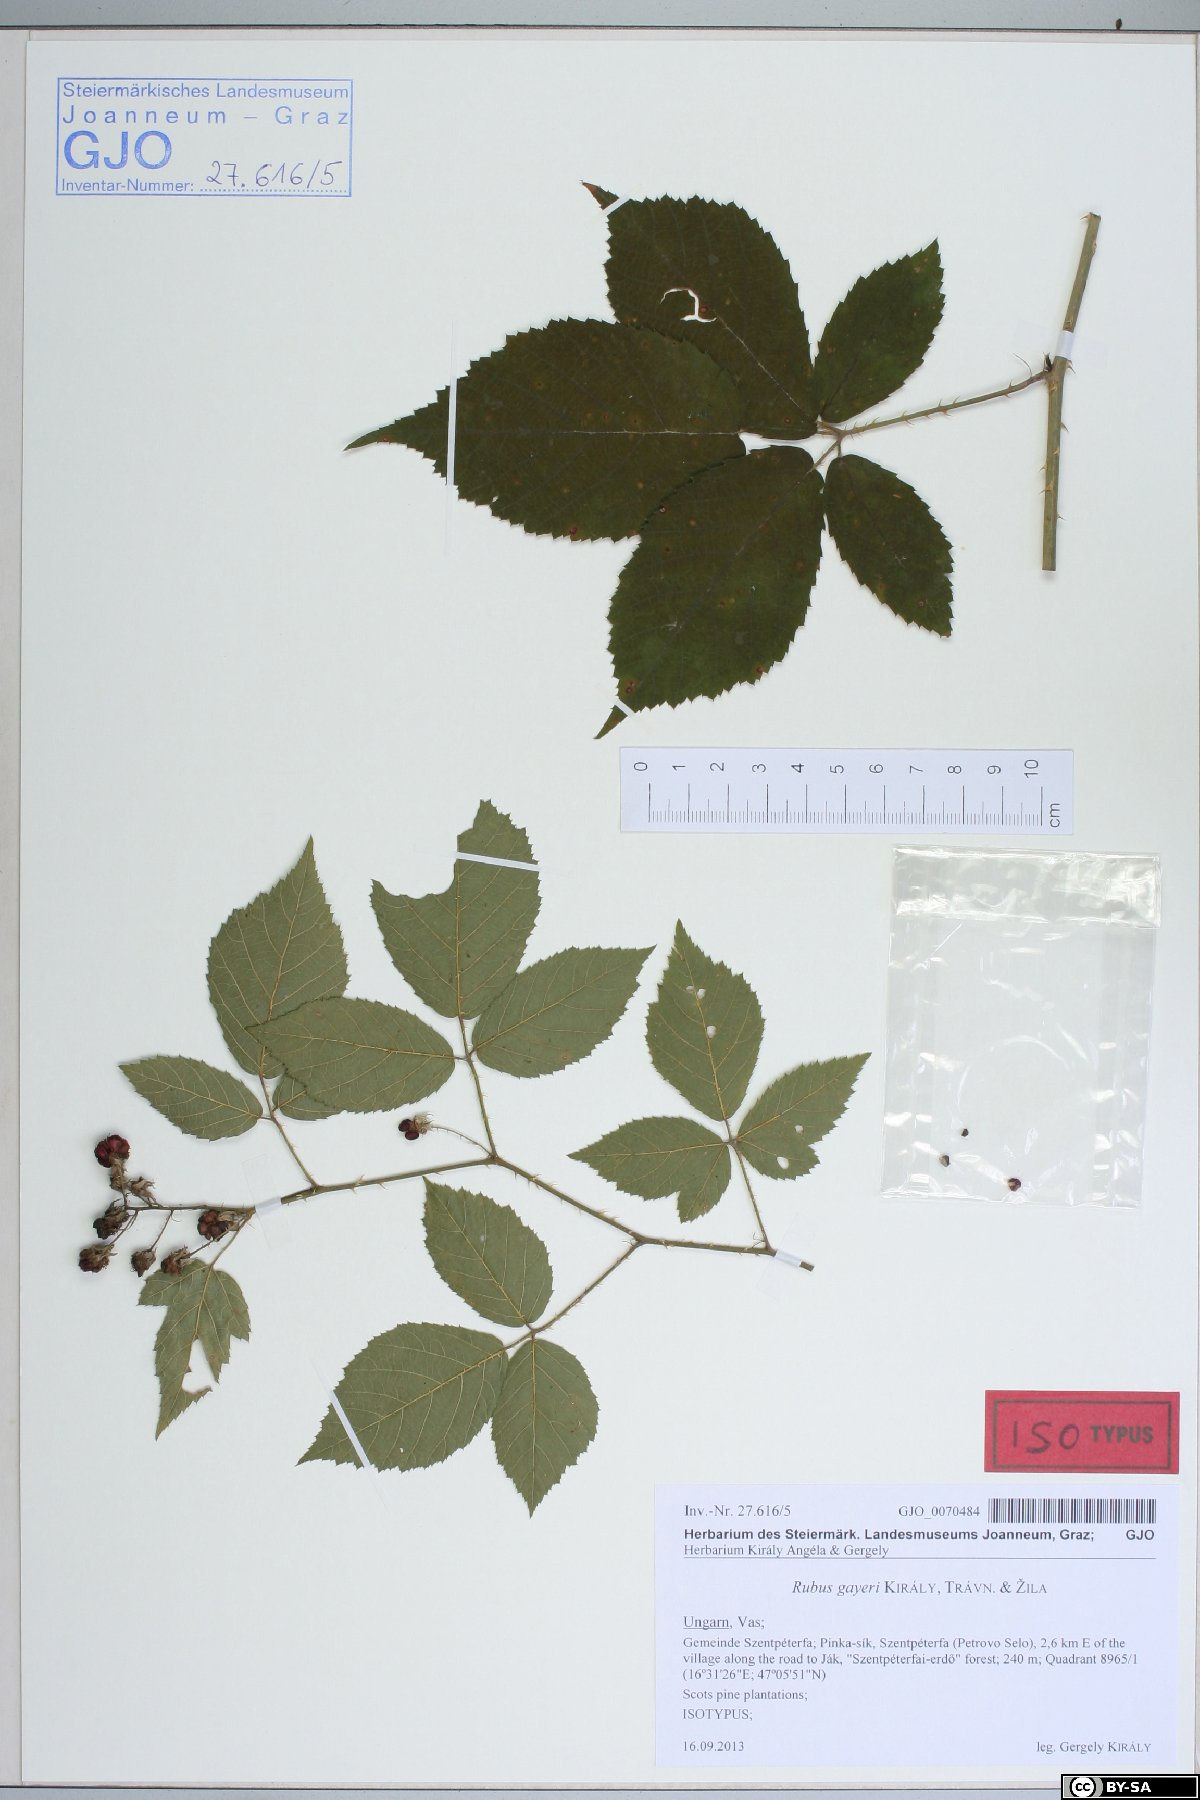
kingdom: Plantae
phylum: Tracheophyta
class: Magnoliopsida
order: Rosales
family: Rosaceae
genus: Rubus
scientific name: Rubus gayeri
